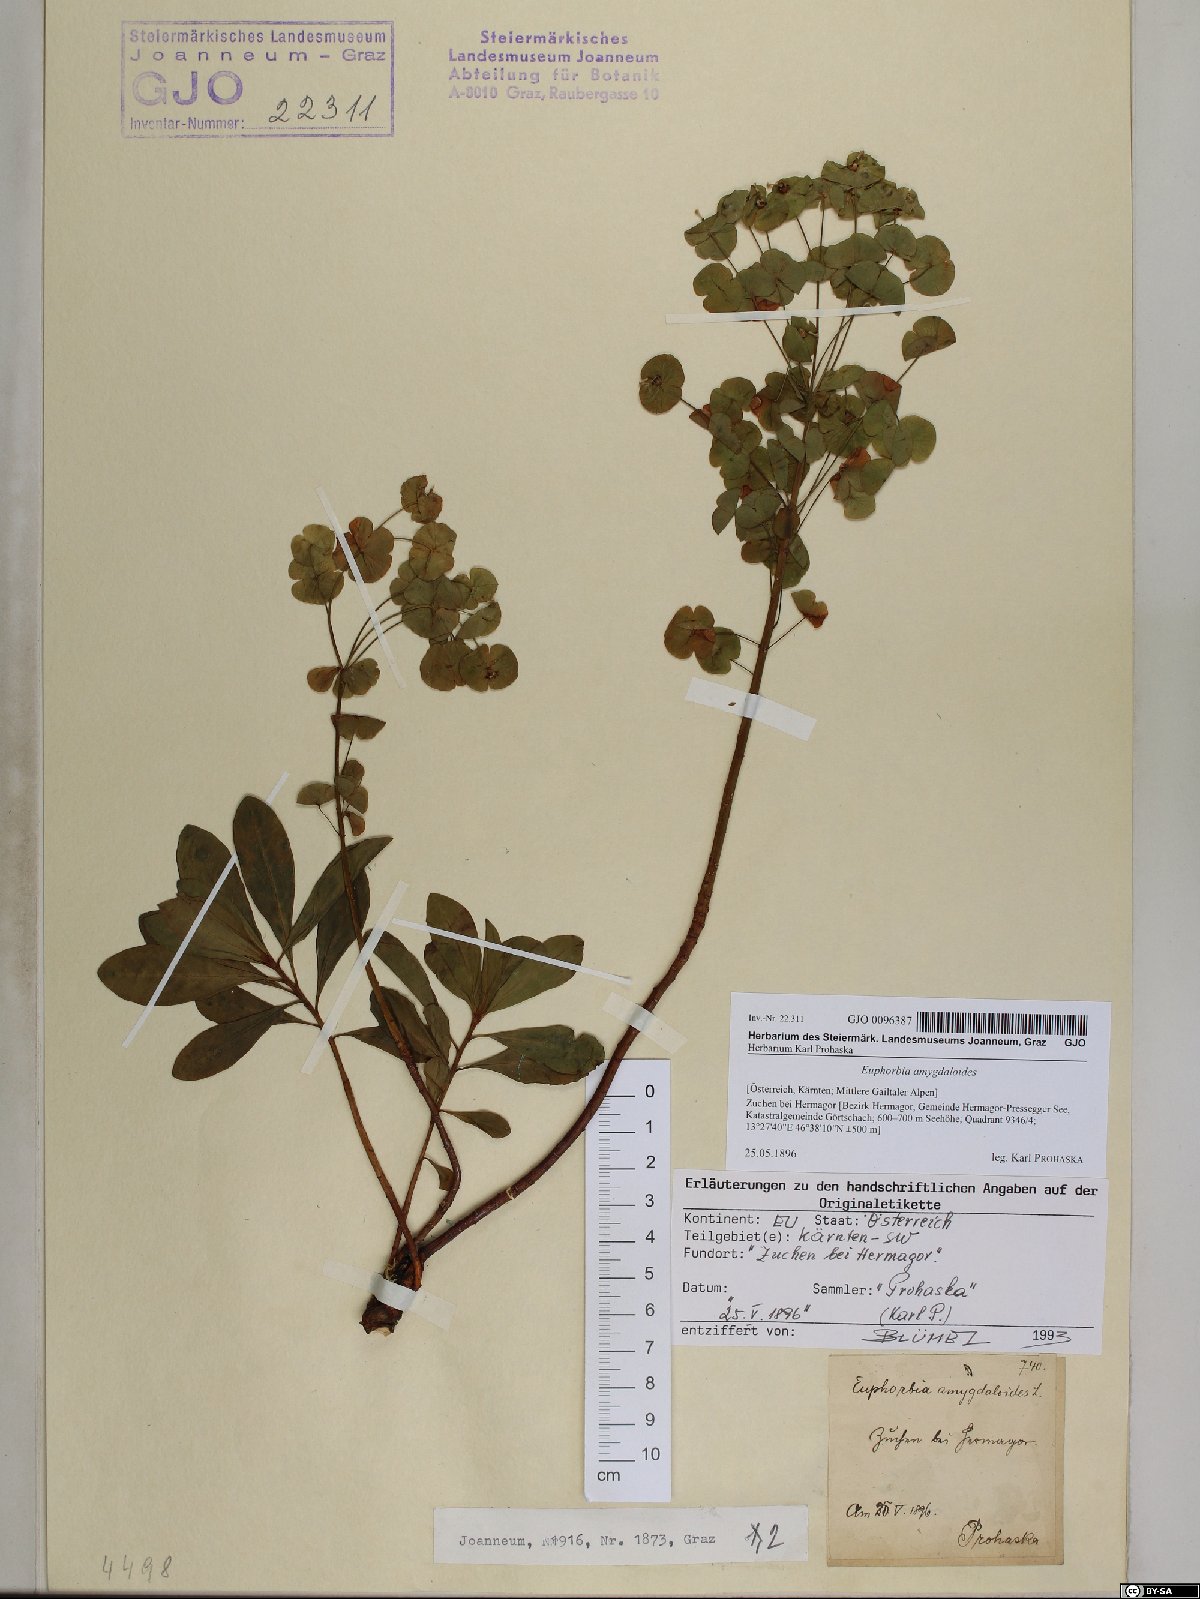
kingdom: Plantae
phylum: Tracheophyta
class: Magnoliopsida
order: Malpighiales
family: Euphorbiaceae
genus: Euphorbia
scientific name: Euphorbia amygdaloides
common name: Wood spurge
